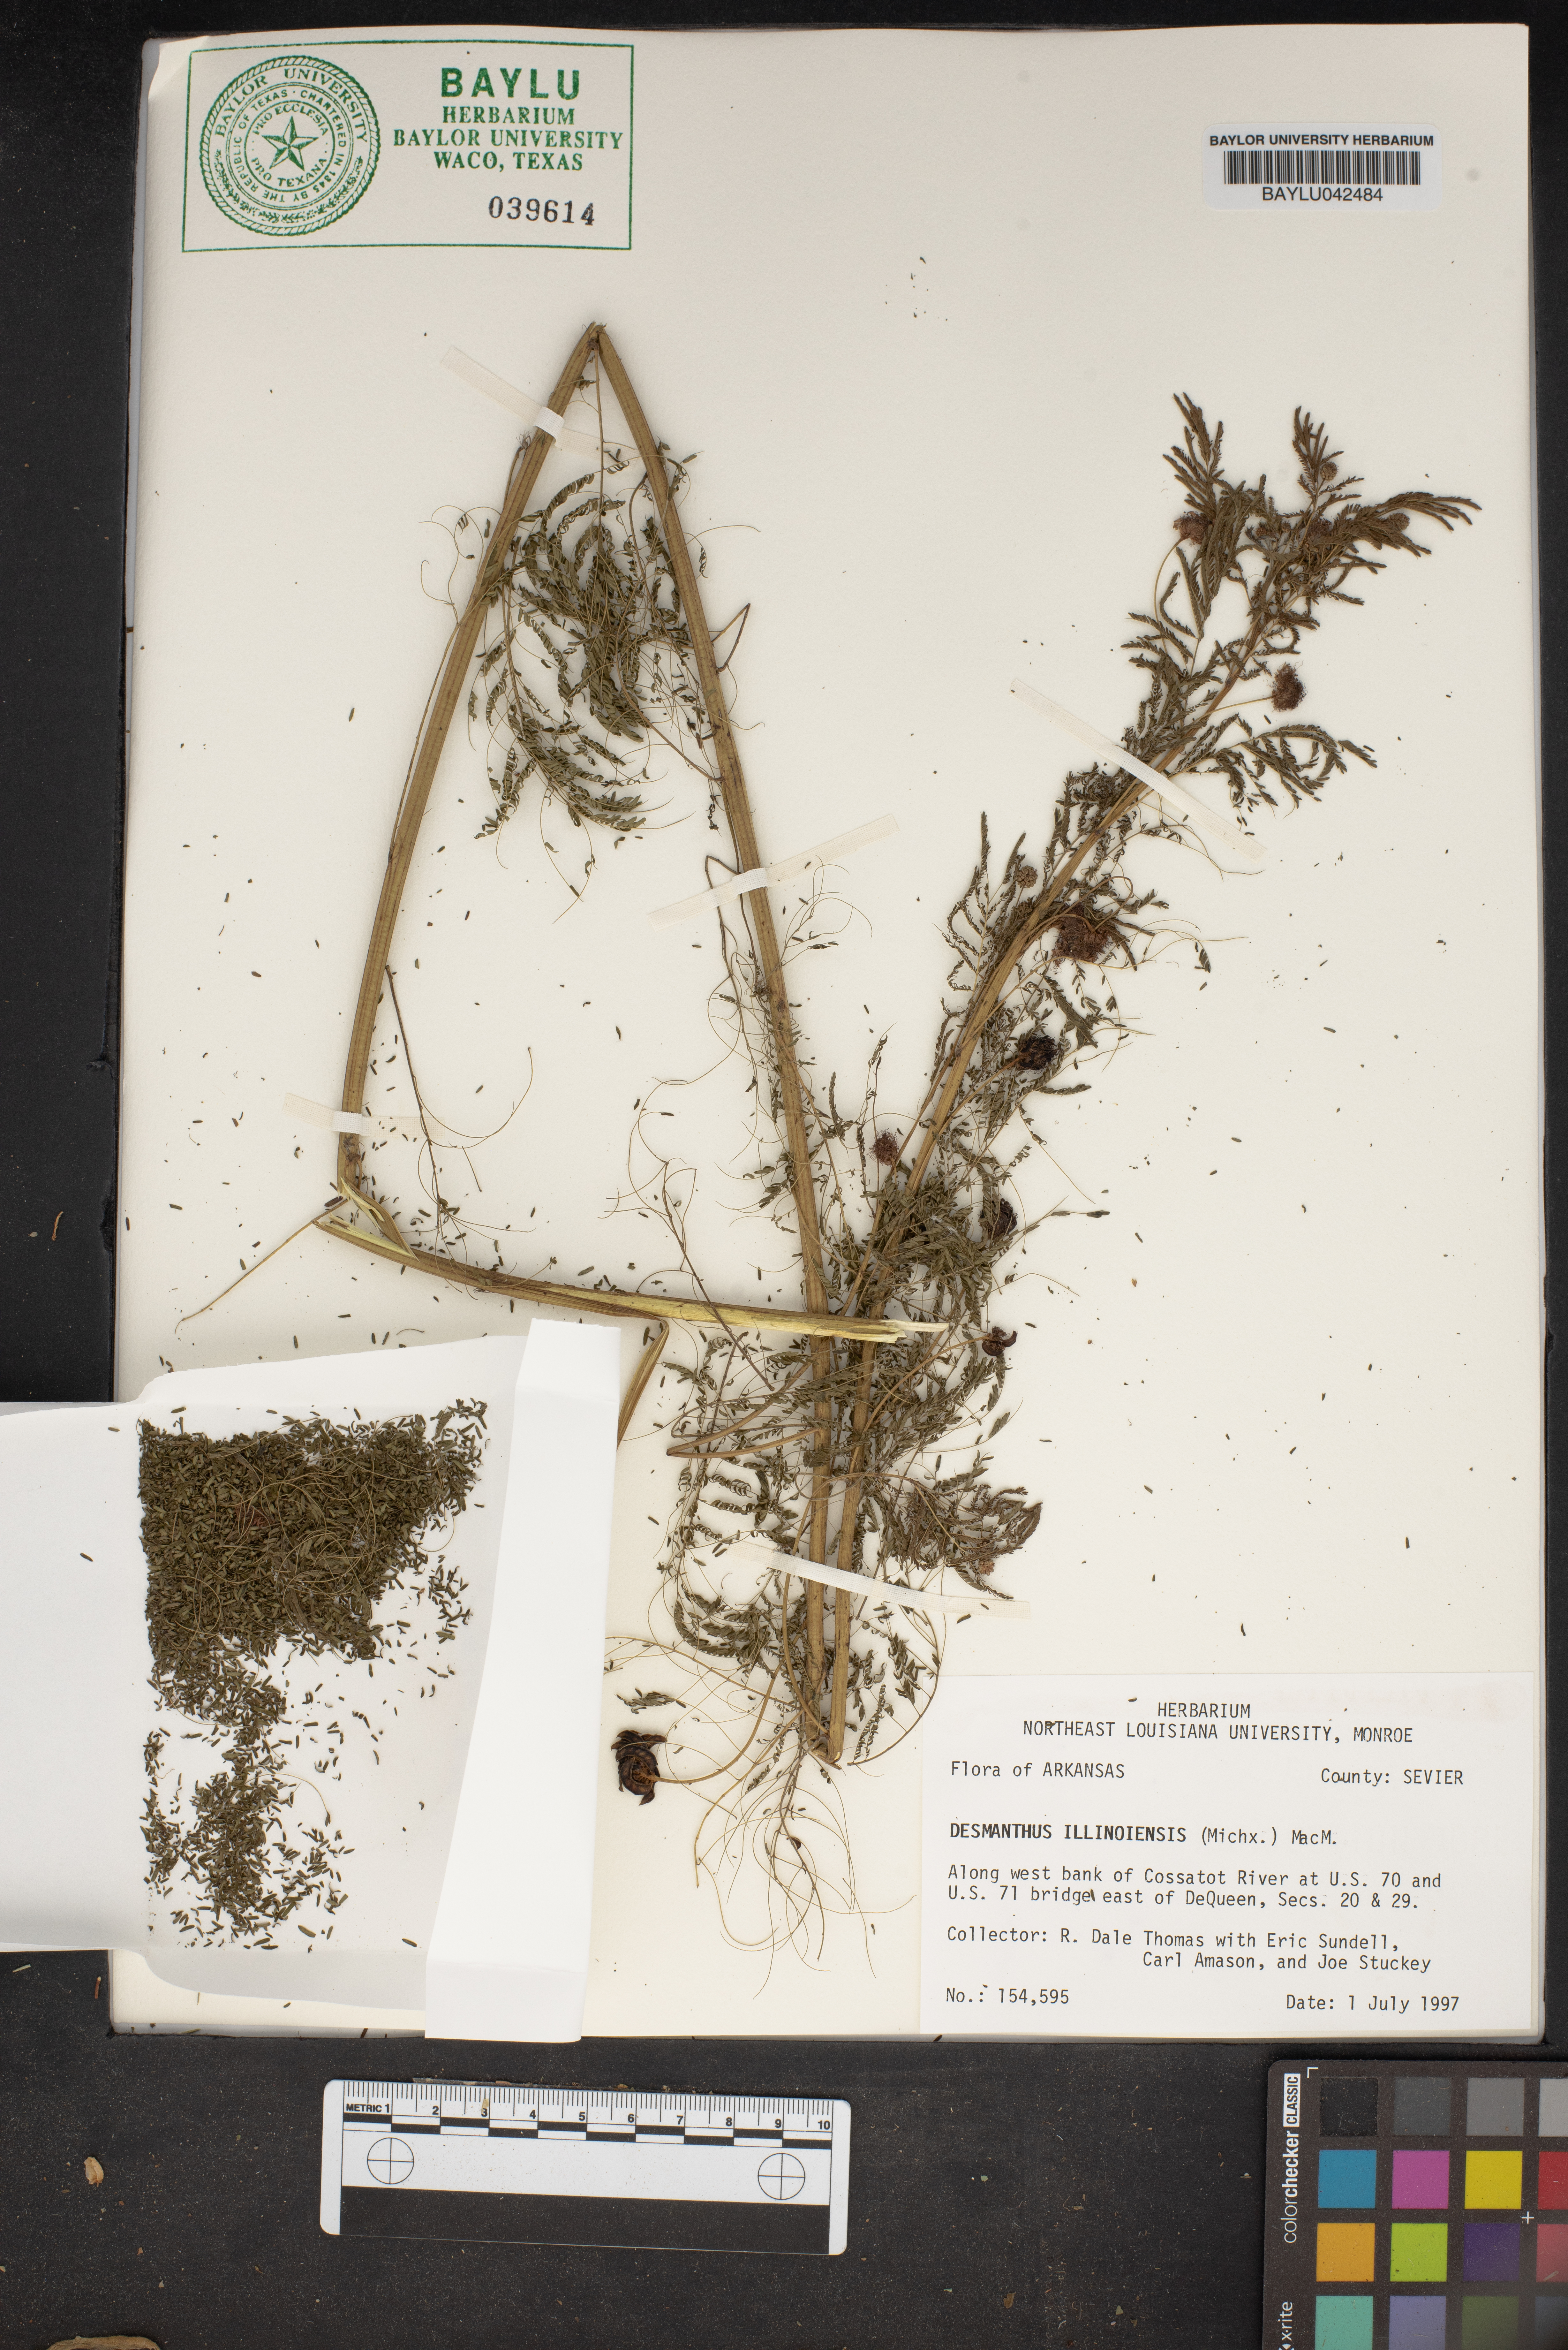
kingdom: Plantae
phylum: Tracheophyta
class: Magnoliopsida
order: Fabales
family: Fabaceae
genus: Desmanthus
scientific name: Desmanthus illinoensis
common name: Illinois bundle-flower
